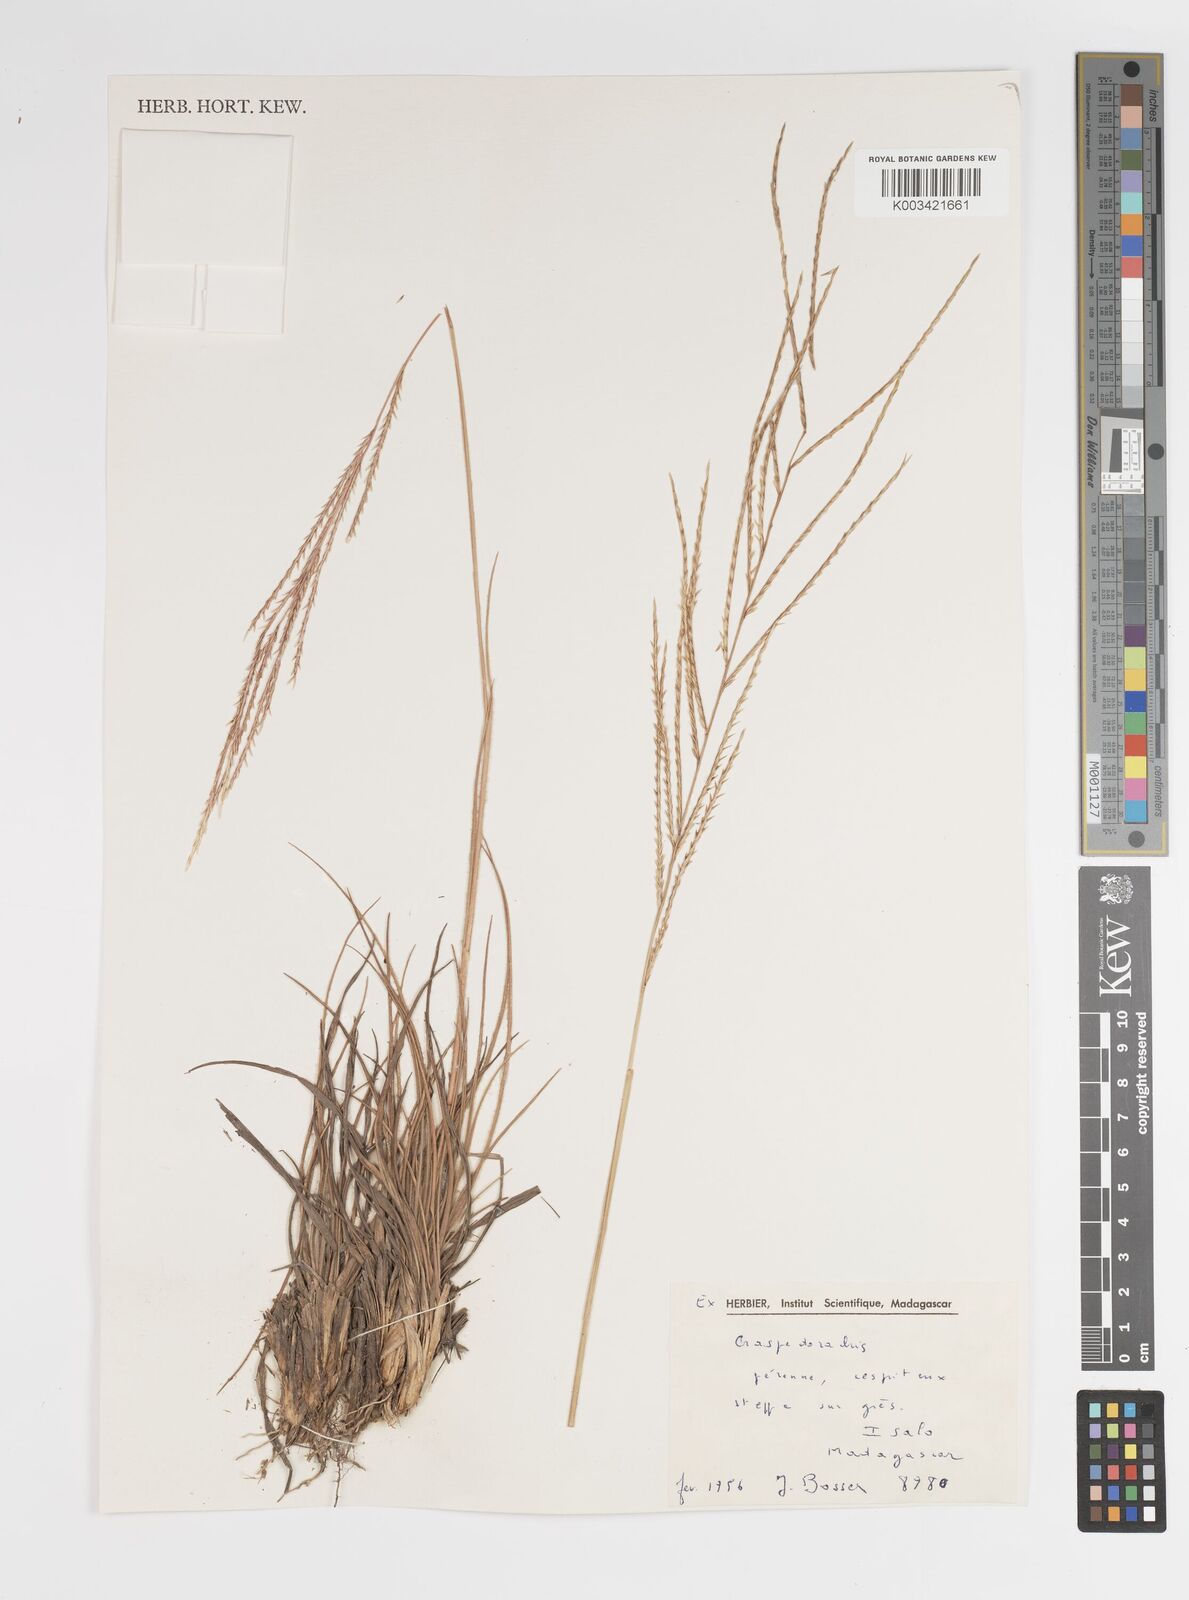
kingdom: Plantae
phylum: Tracheophyta
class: Liliopsida
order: Poales
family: Poaceae
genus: Craspedorhachis
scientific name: Craspedorhachis africana
